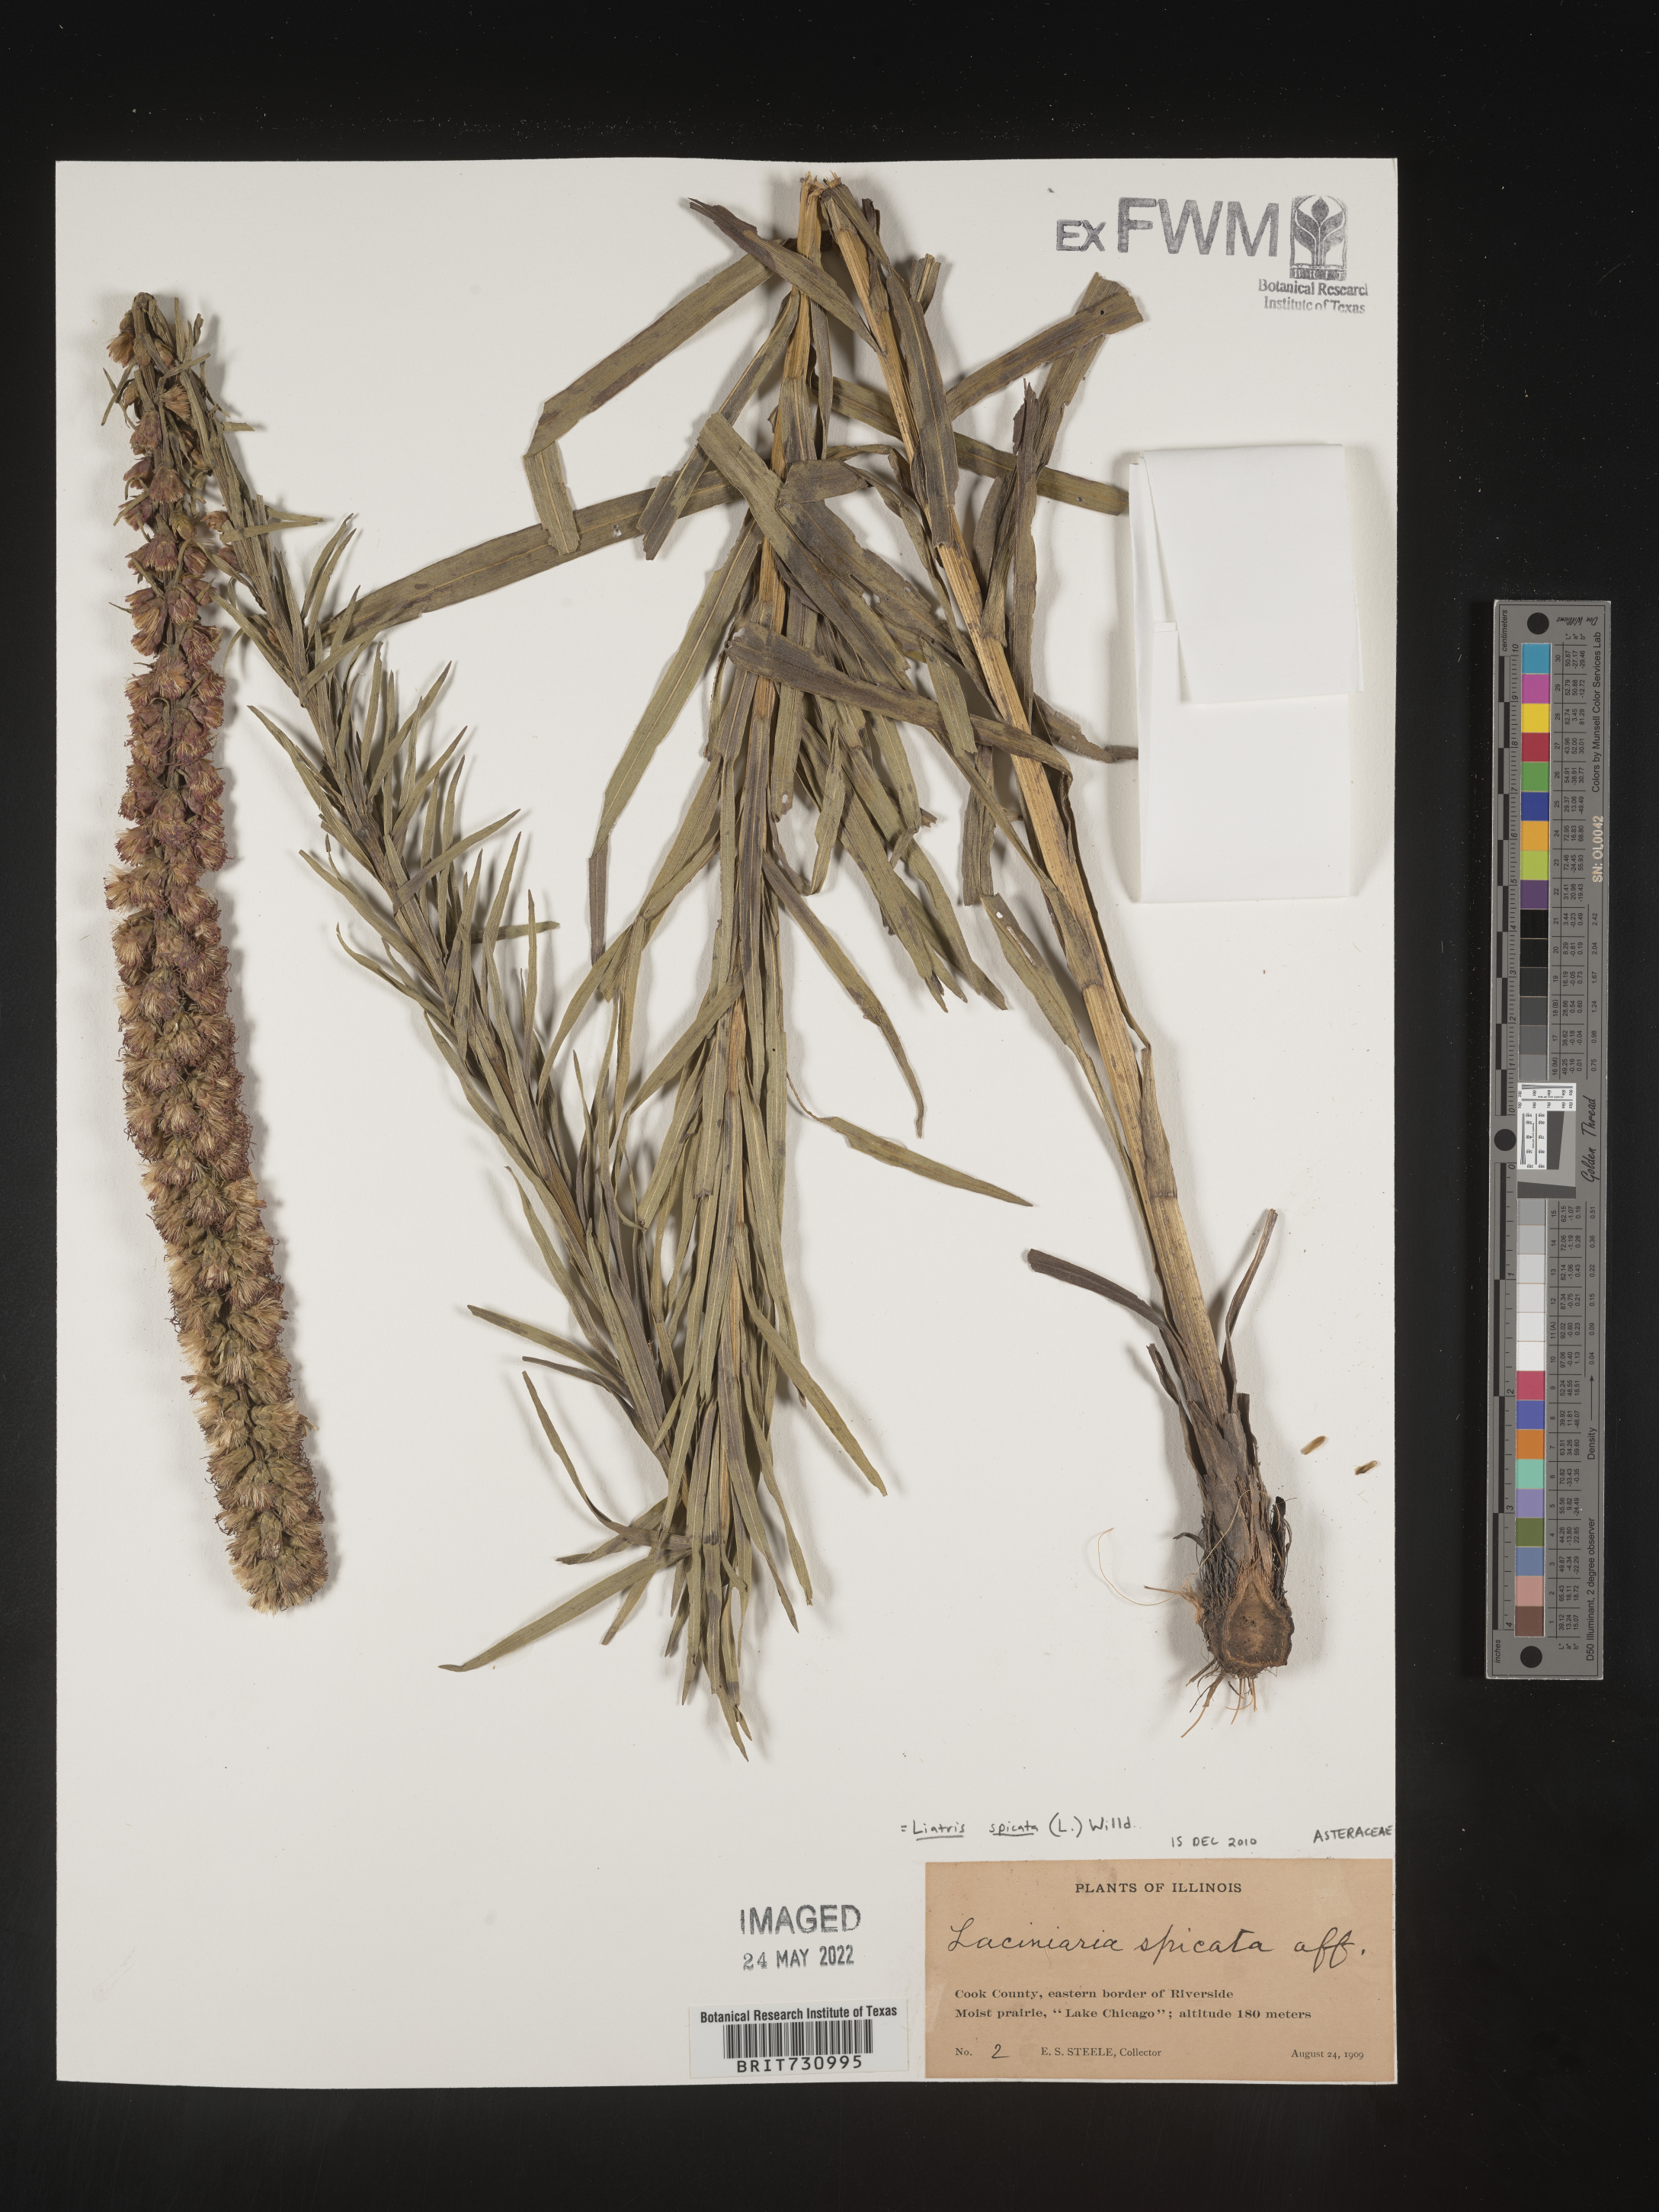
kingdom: Plantae
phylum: Tracheophyta
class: Magnoliopsida
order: Asterales
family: Asteraceae
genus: Liatris
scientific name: Liatris spicata
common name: Florist gayfeather
